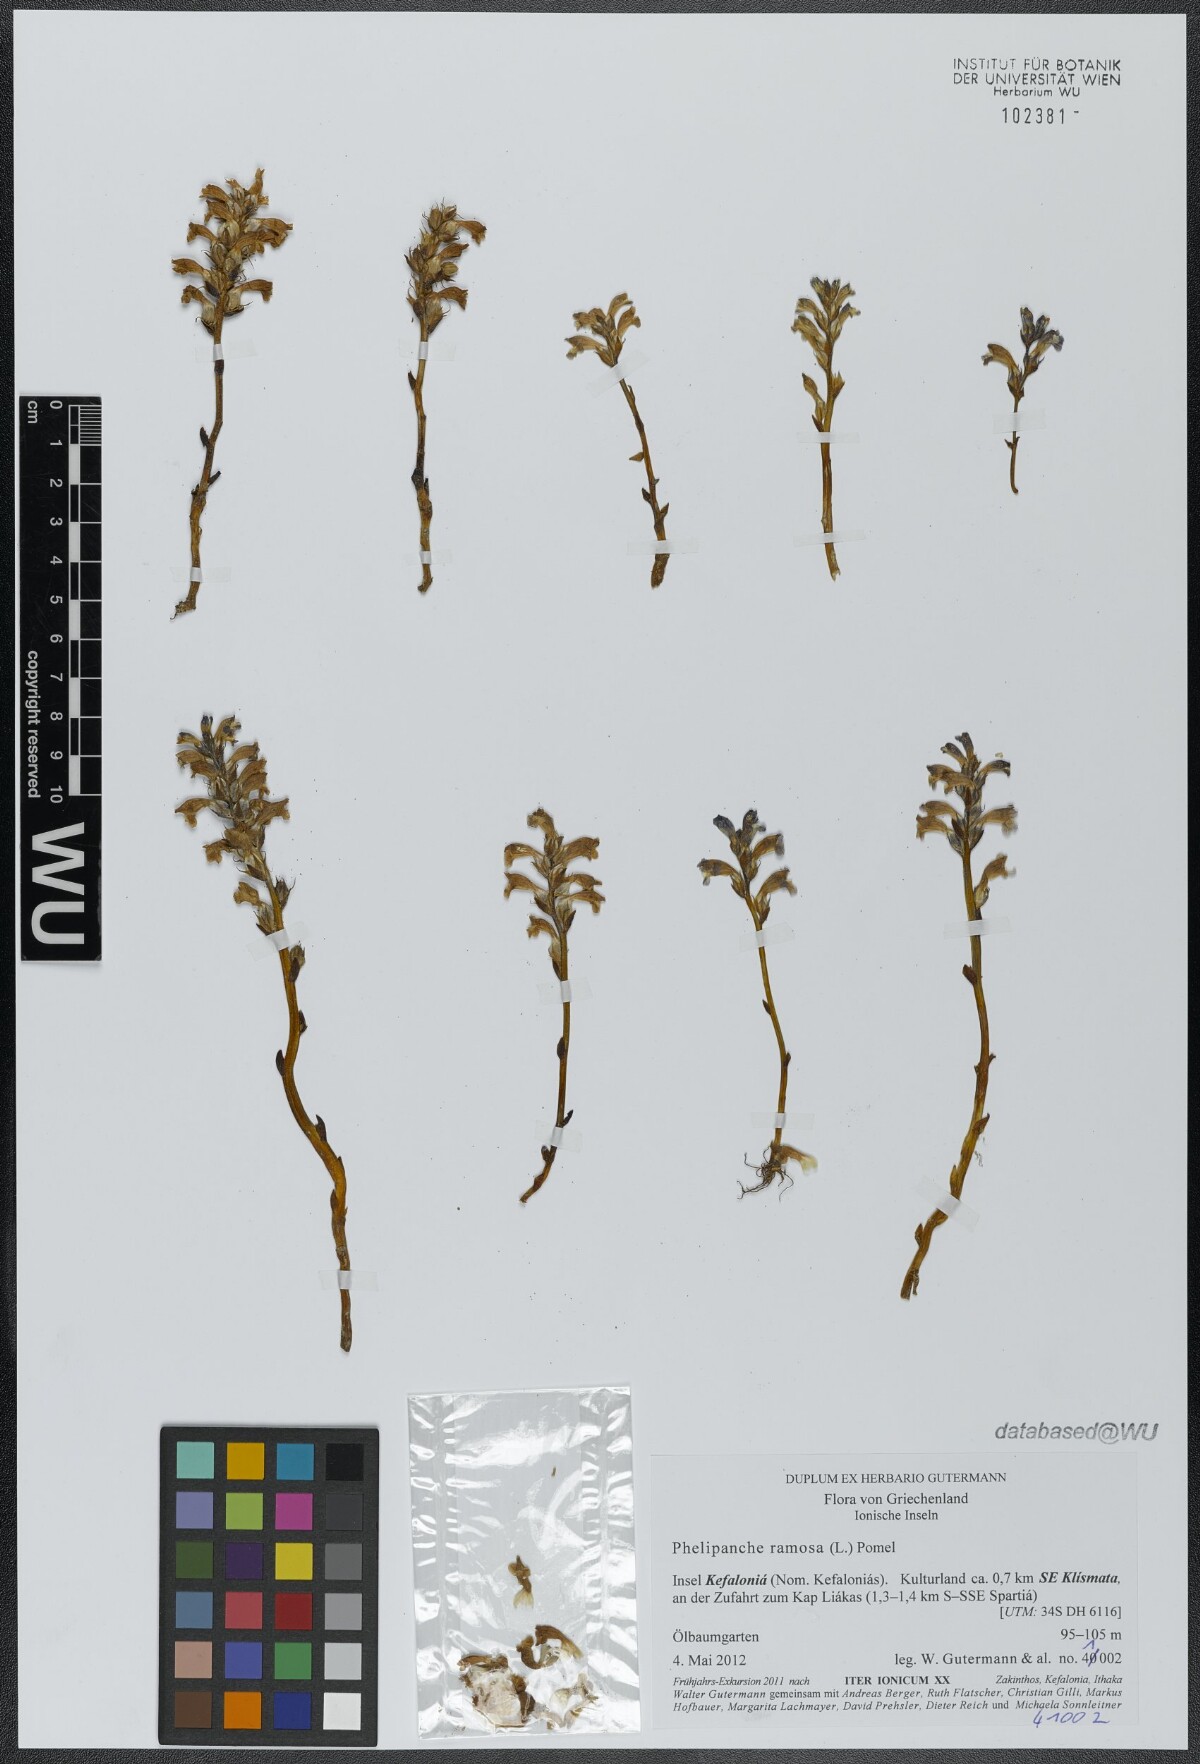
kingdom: Plantae
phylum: Tracheophyta
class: Magnoliopsida
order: Lamiales
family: Orobanchaceae
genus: Phelipanche
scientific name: Phelipanche mutelii
